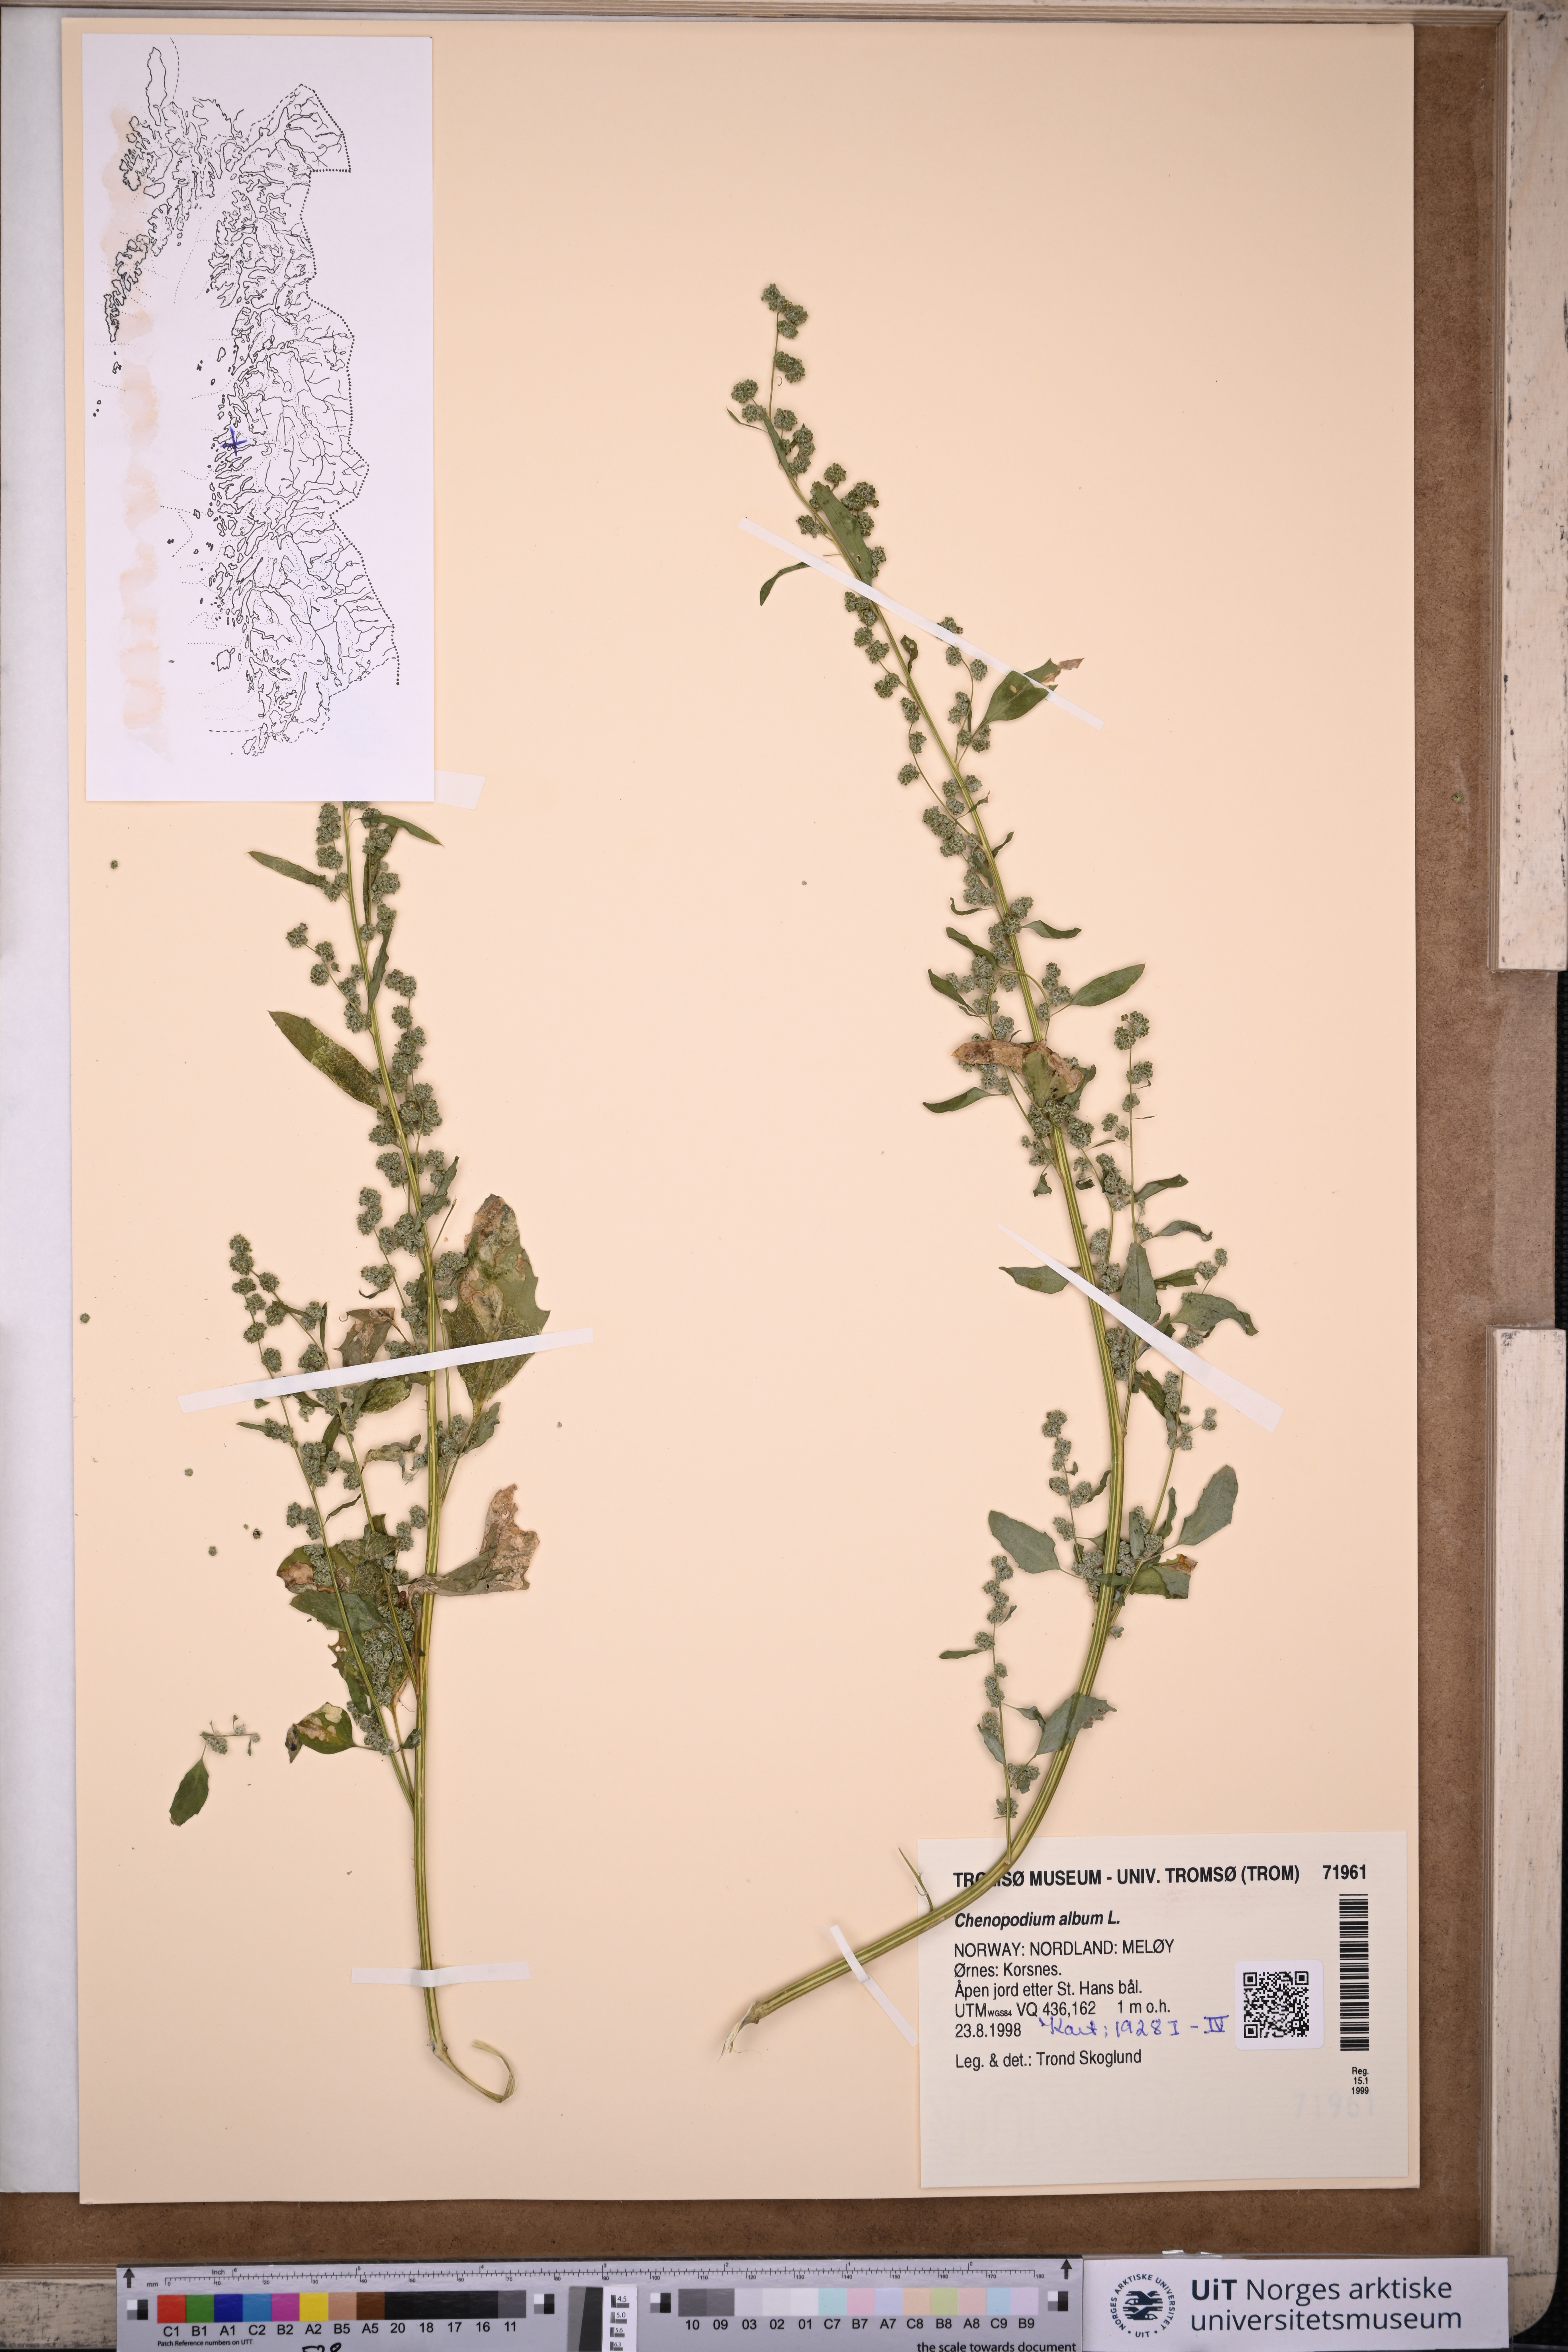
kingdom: Plantae
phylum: Tracheophyta
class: Magnoliopsida
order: Caryophyllales
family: Amaranthaceae
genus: Chenopodium
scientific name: Chenopodium album
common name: Fat-hen
